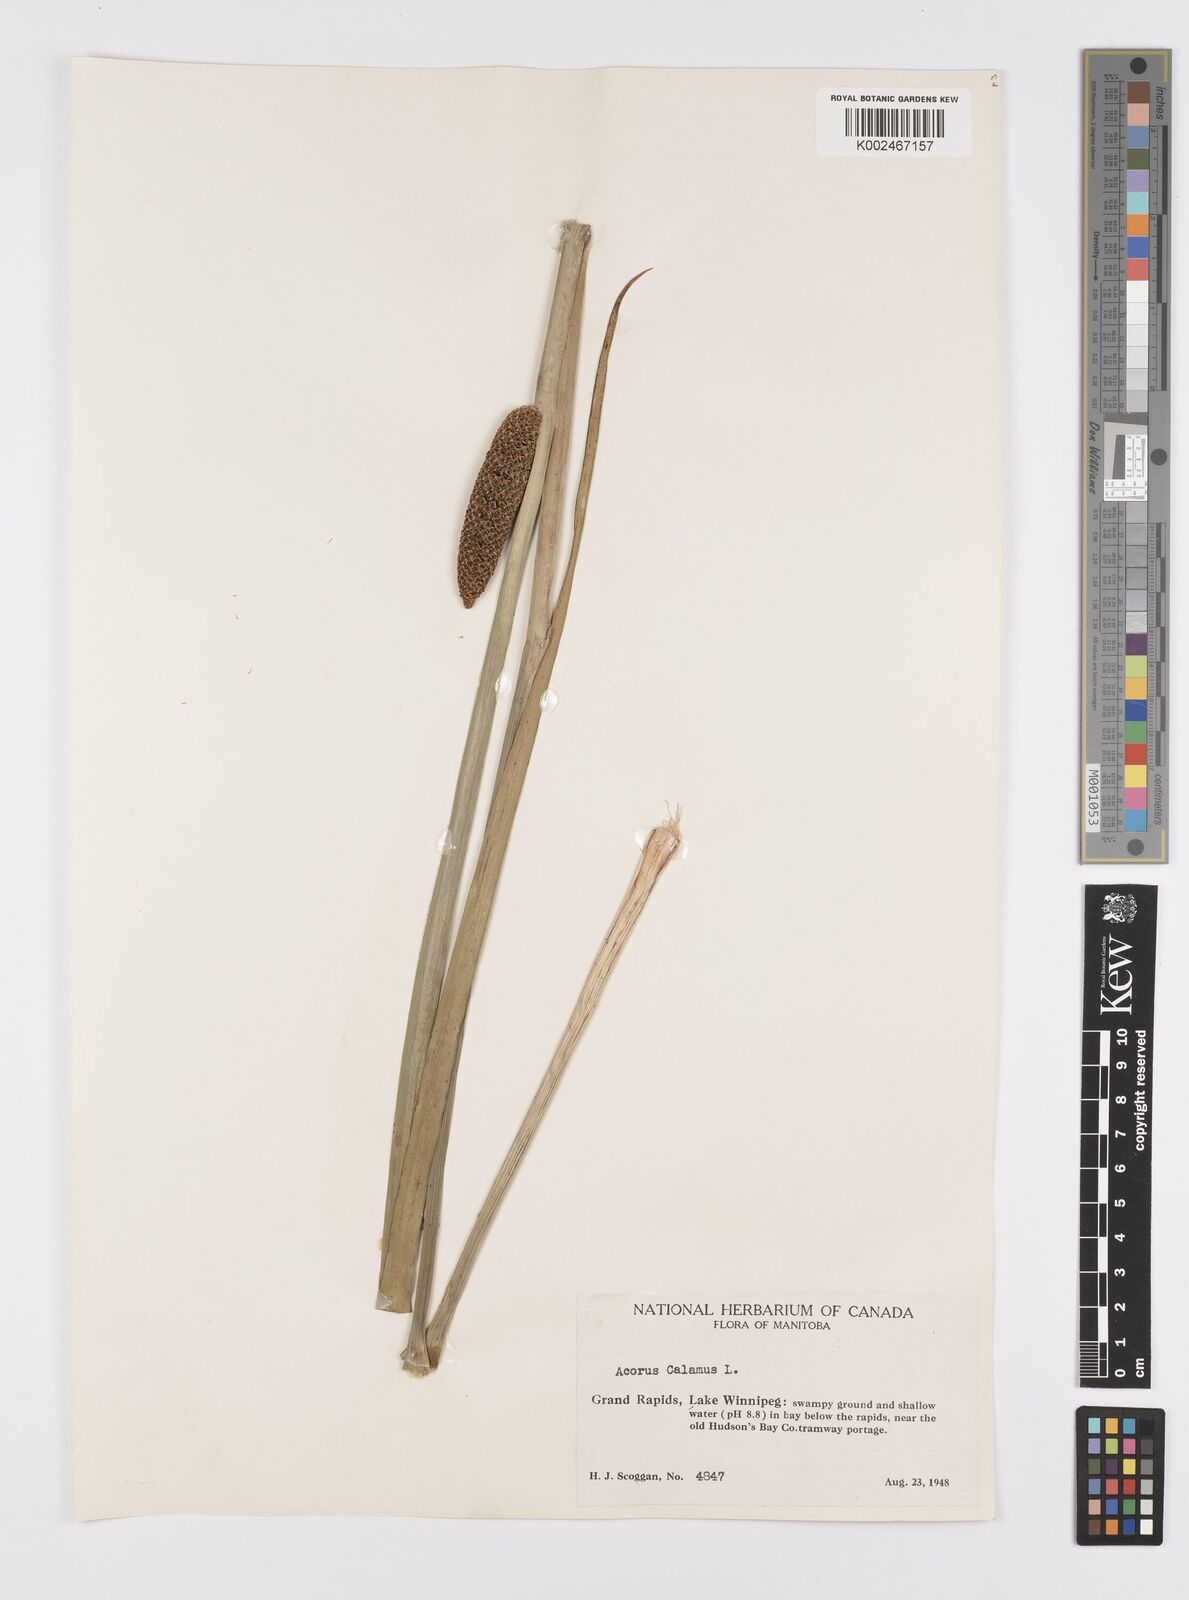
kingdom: Plantae
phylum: Tracheophyta
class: Liliopsida
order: Acorales
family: Acoraceae
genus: Acorus
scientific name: Acorus calamus
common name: Sweet-flag
